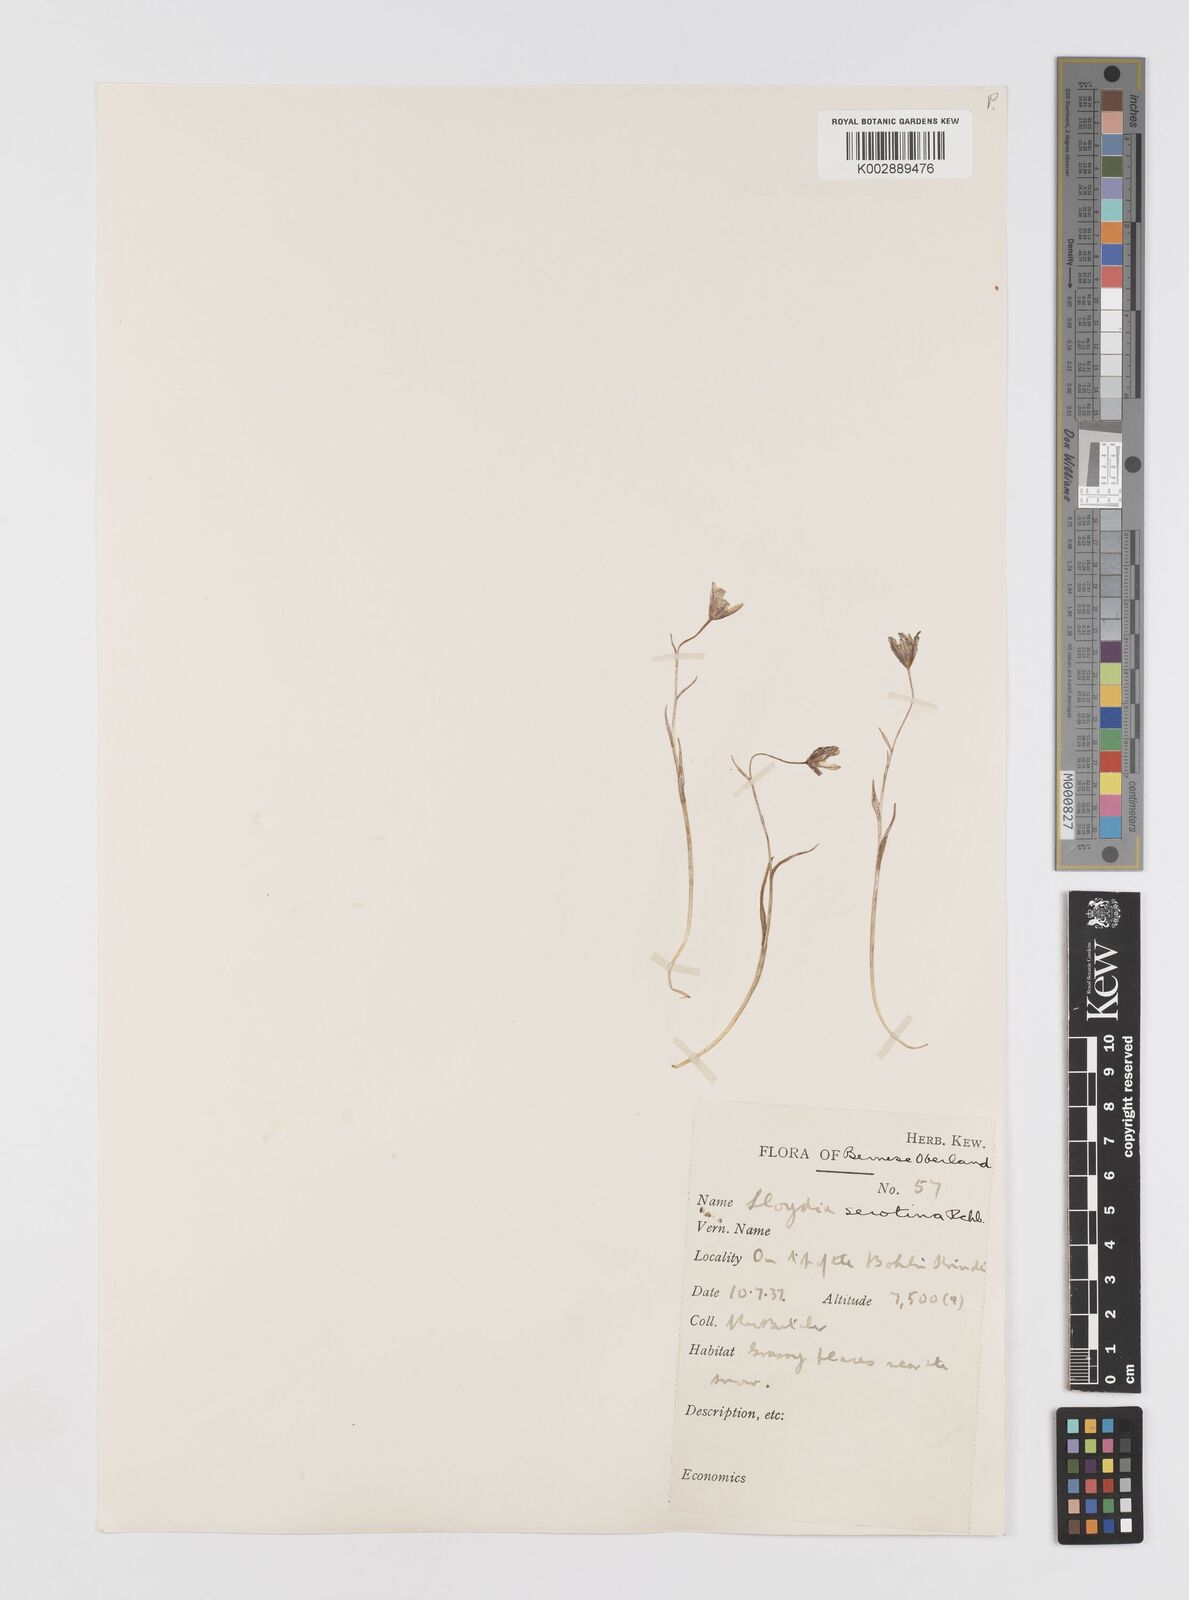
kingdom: Plantae
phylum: Tracheophyta
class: Liliopsida
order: Liliales
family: Liliaceae
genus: Gagea
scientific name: Gagea
